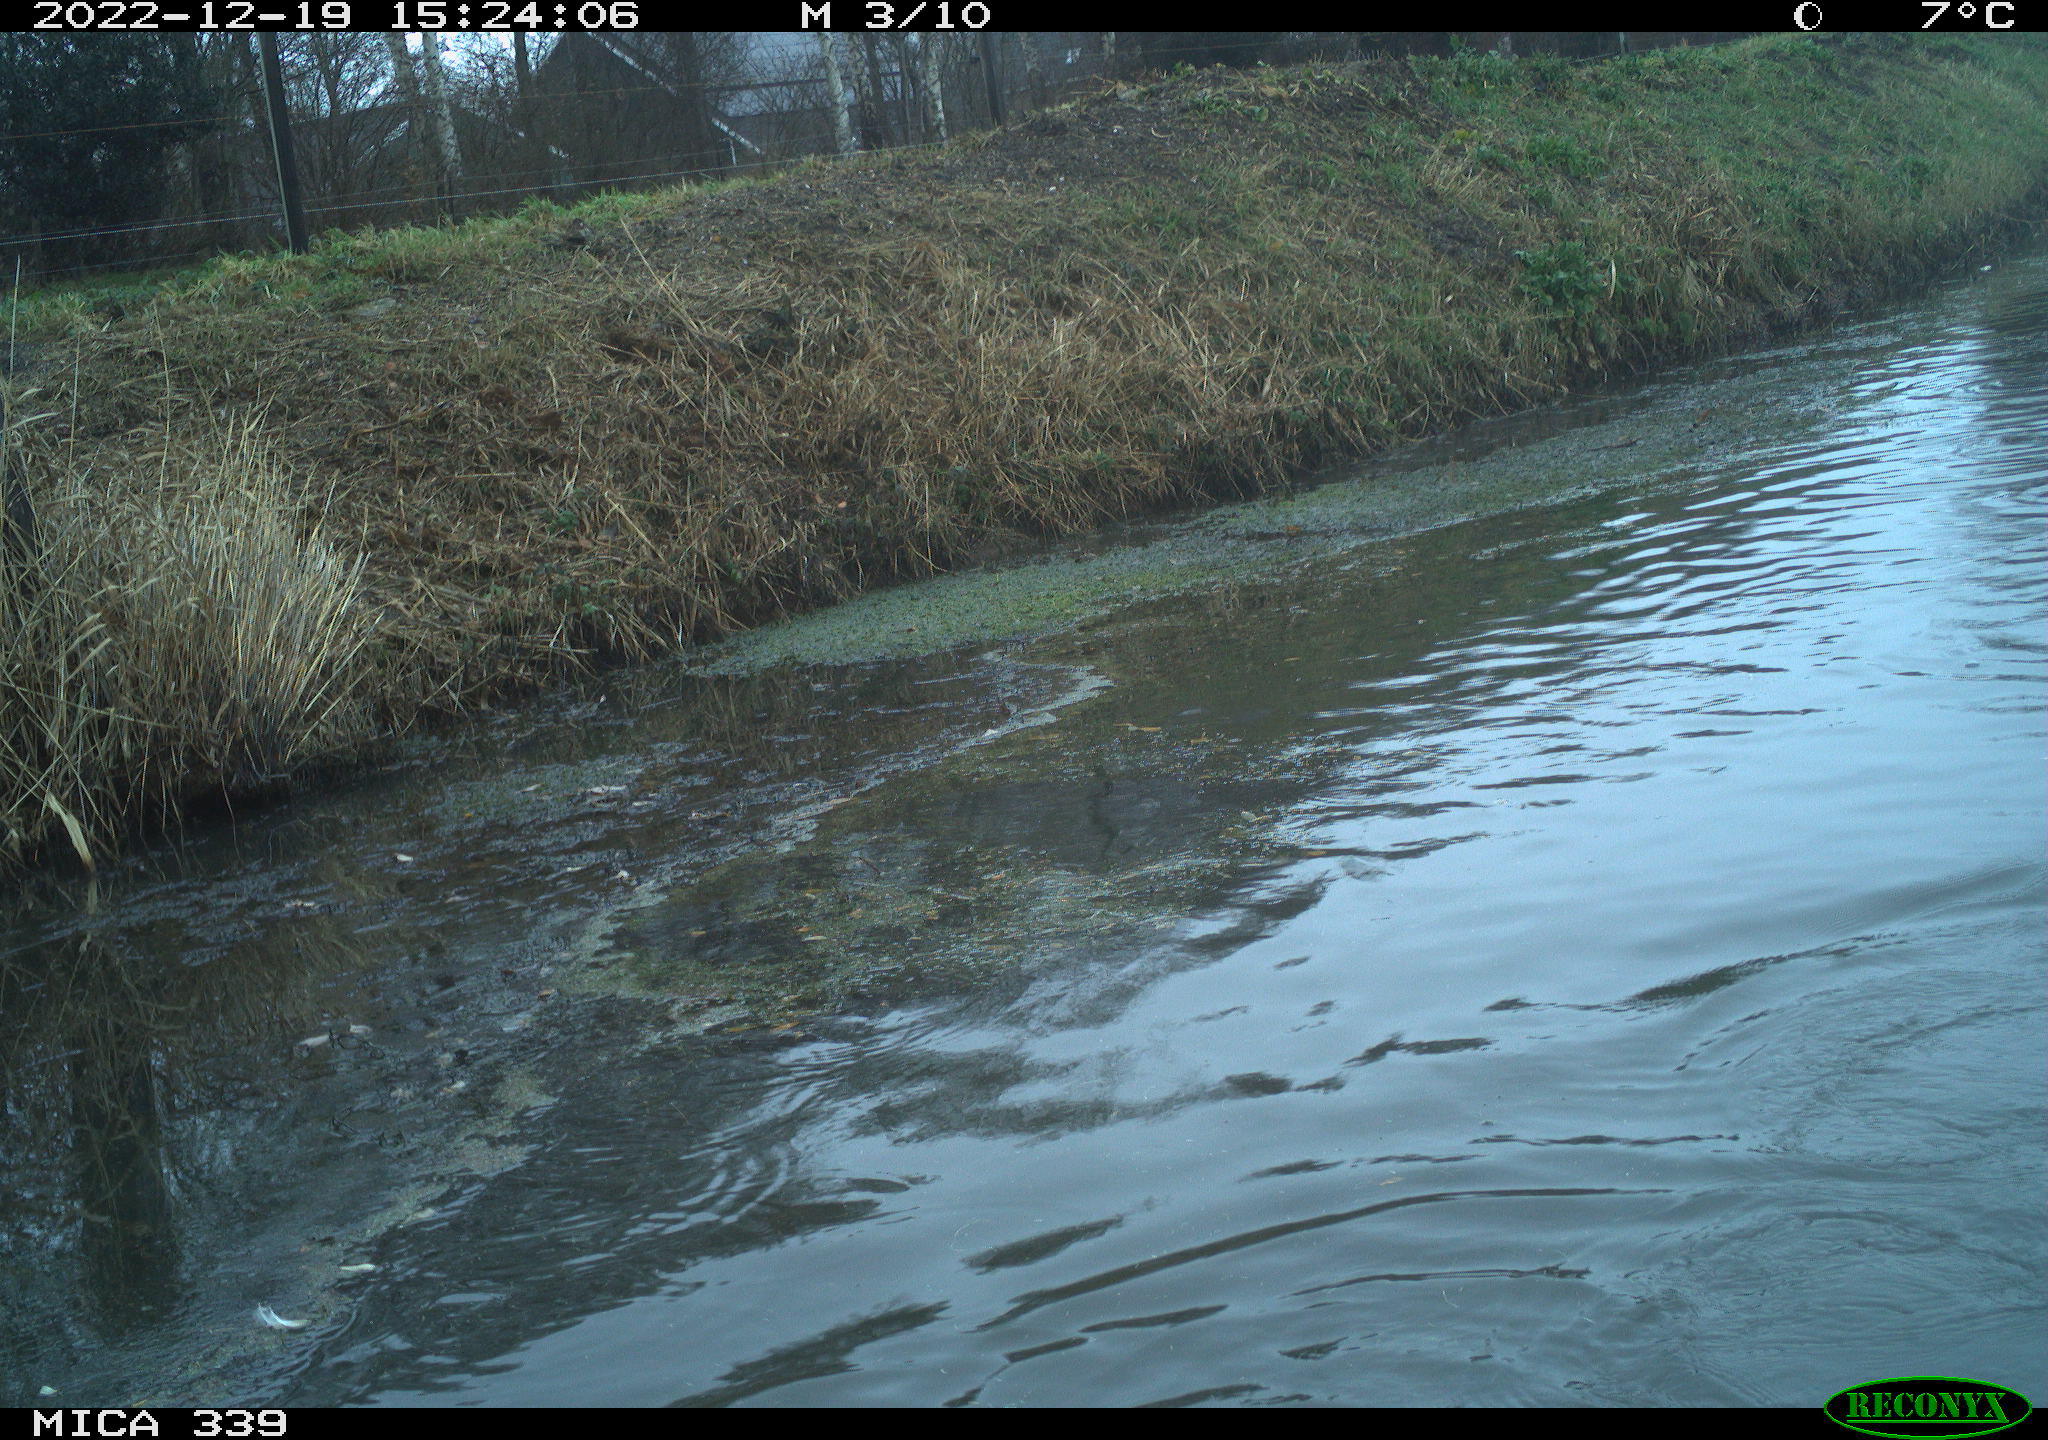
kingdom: Animalia
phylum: Chordata
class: Aves
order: Anseriformes
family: Anatidae
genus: Anas
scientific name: Anas
